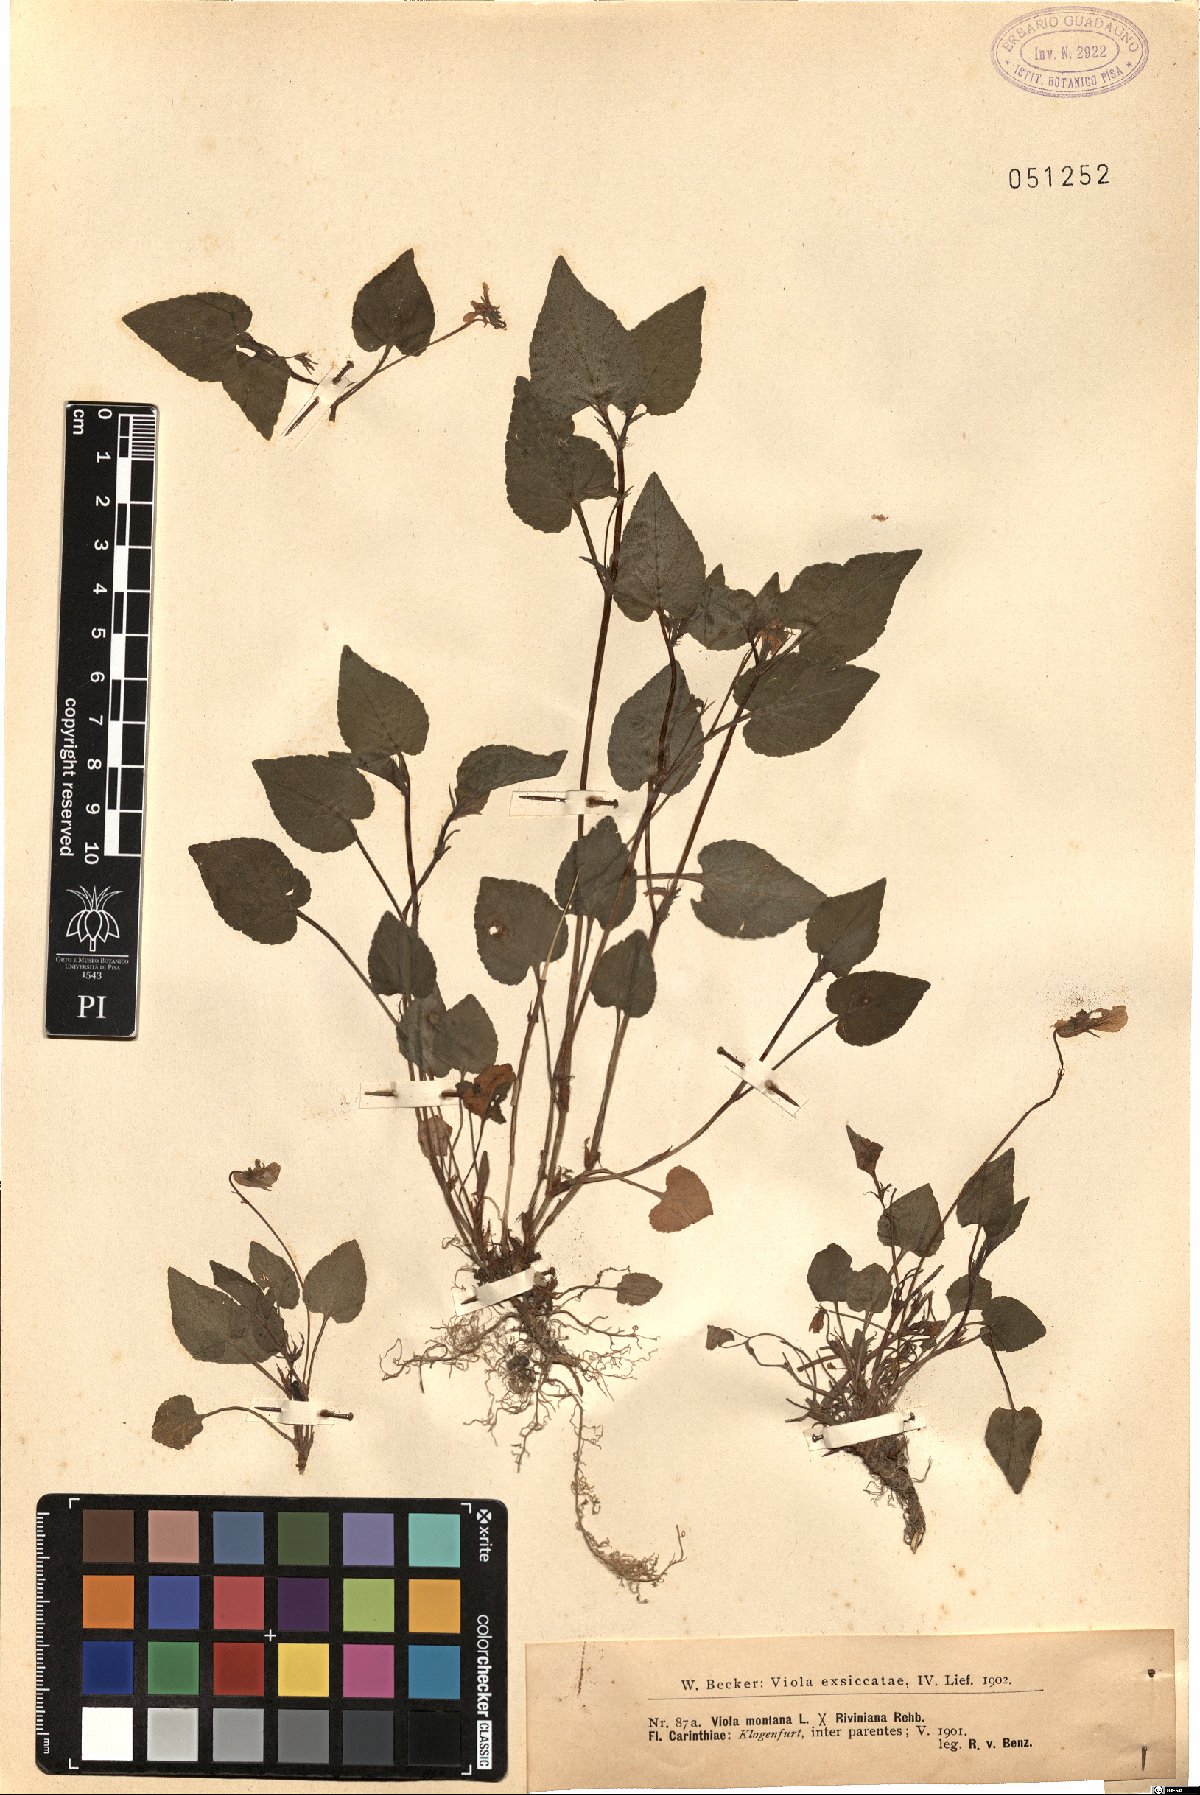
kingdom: Plantae
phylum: Tracheophyta
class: Magnoliopsida
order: Malpighiales
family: Violaceae
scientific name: Violaceae
